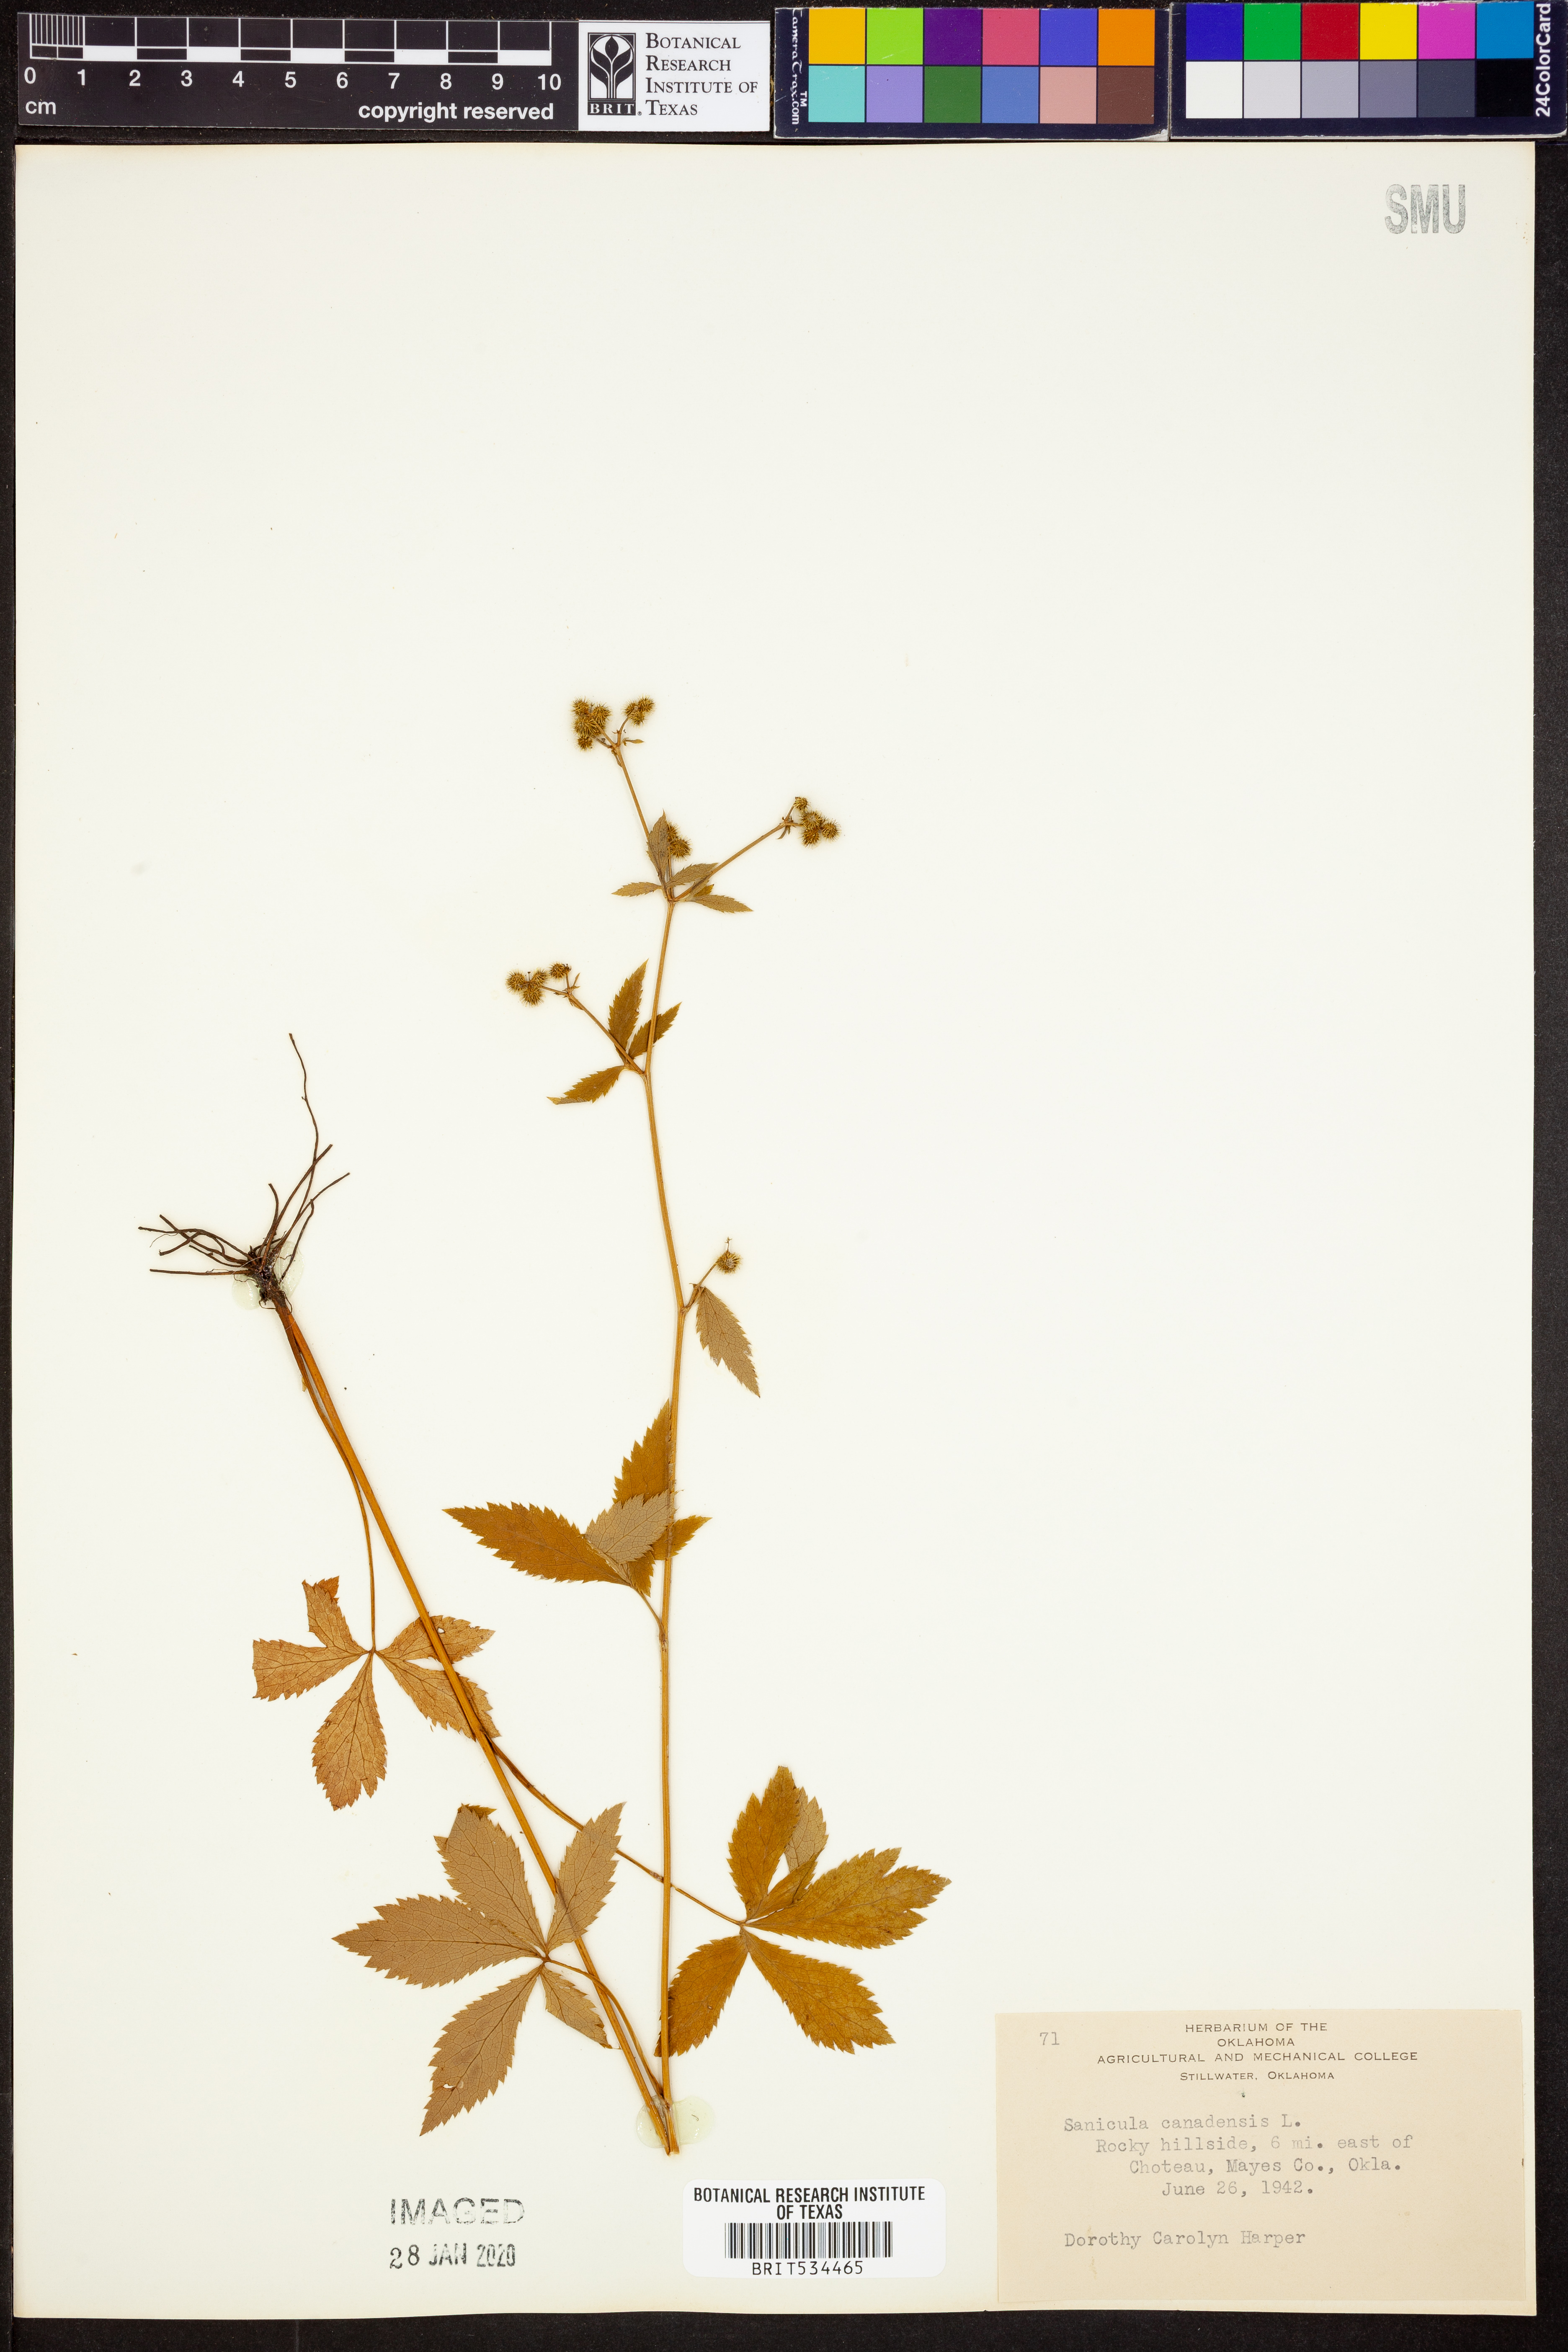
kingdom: Plantae
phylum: Tracheophyta
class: Magnoliopsida
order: Apiales
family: Apiaceae
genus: Sanicula
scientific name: Sanicula canadensis
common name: Canada sanicle
